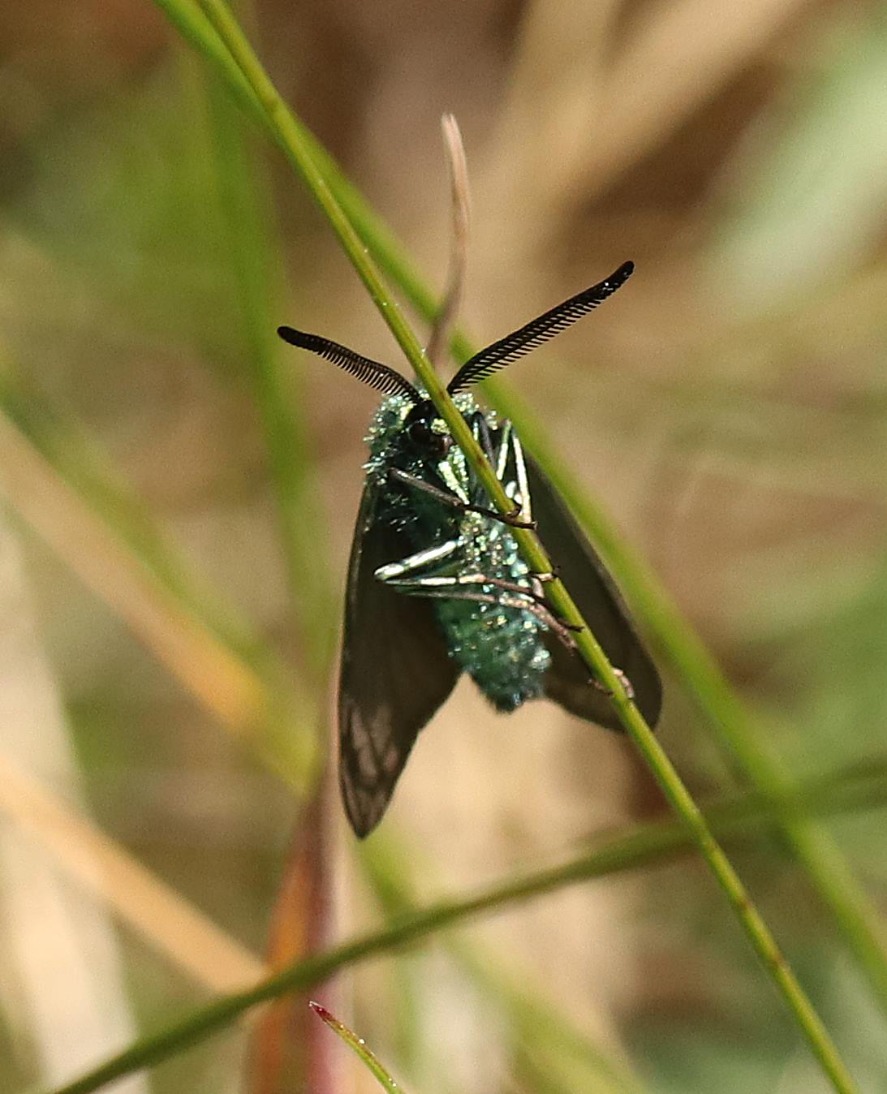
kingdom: Animalia
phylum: Arthropoda
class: Insecta
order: Lepidoptera
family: Zygaenidae
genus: Adscita
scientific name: Adscita statices
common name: Metalvinge
